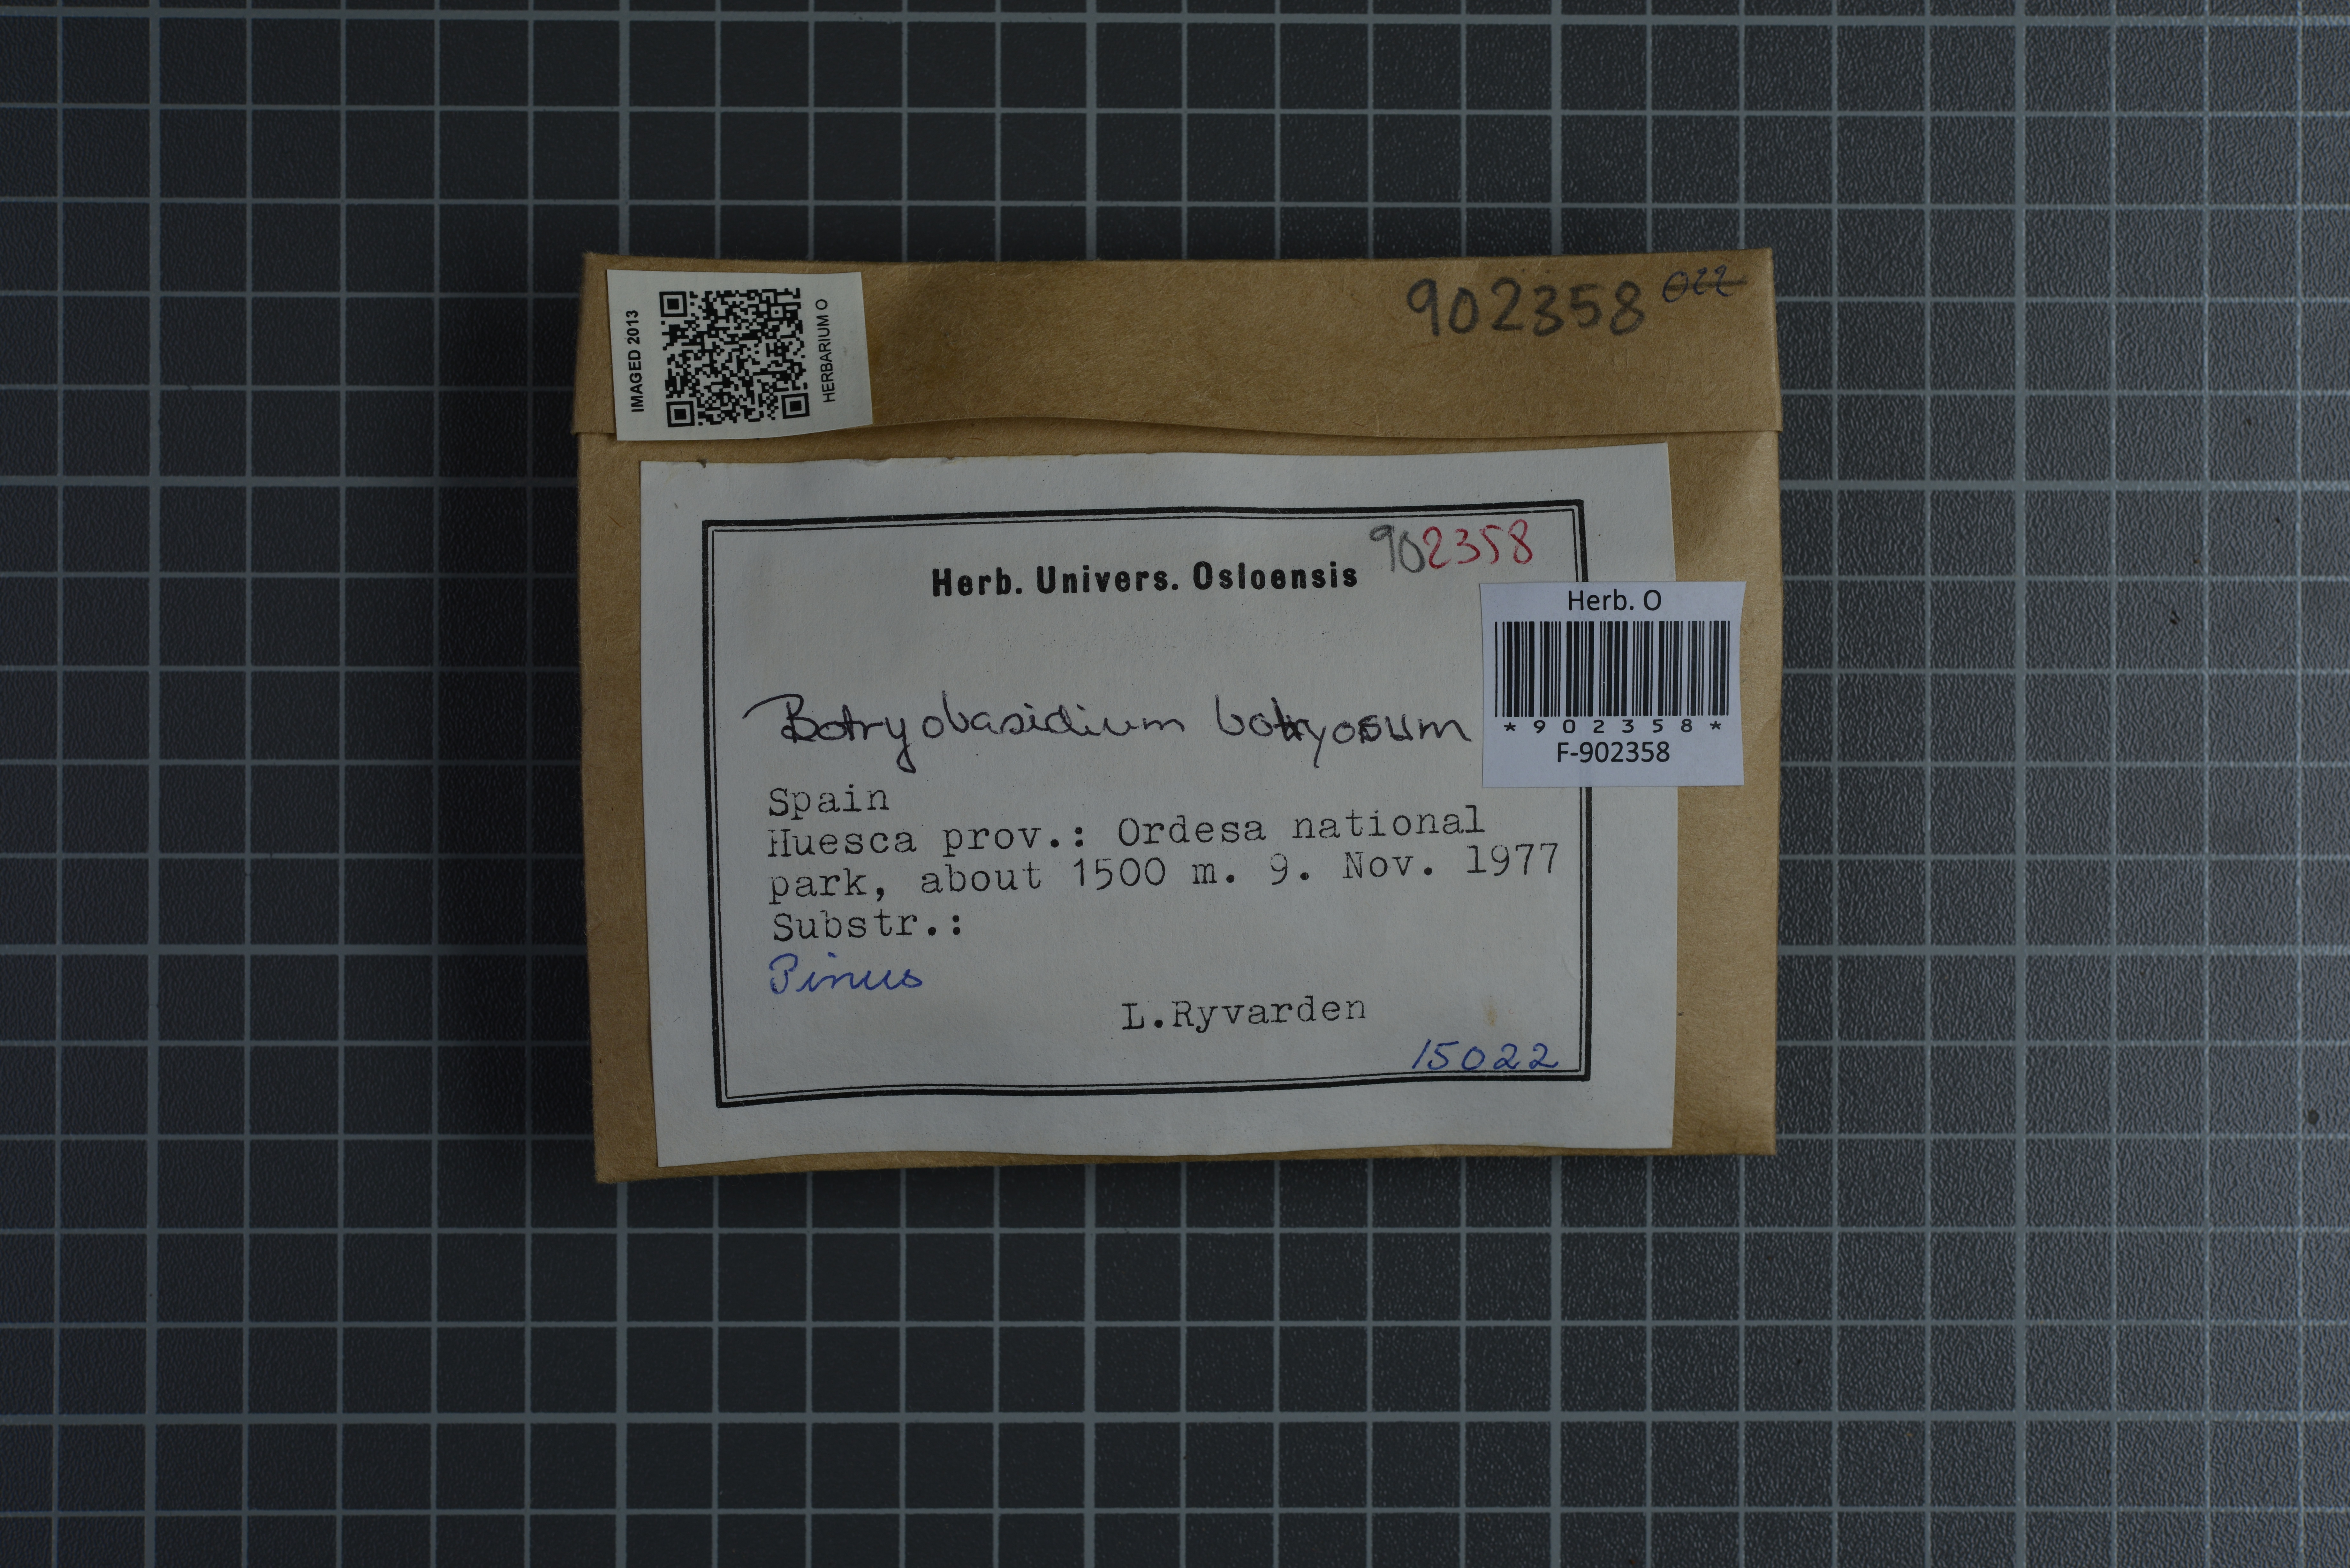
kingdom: Fungi
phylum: Basidiomycota
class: Agaricomycetes
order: Cantharellales
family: Botryobasidiaceae
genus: Botryobasidium
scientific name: Botryobasidium vagum
